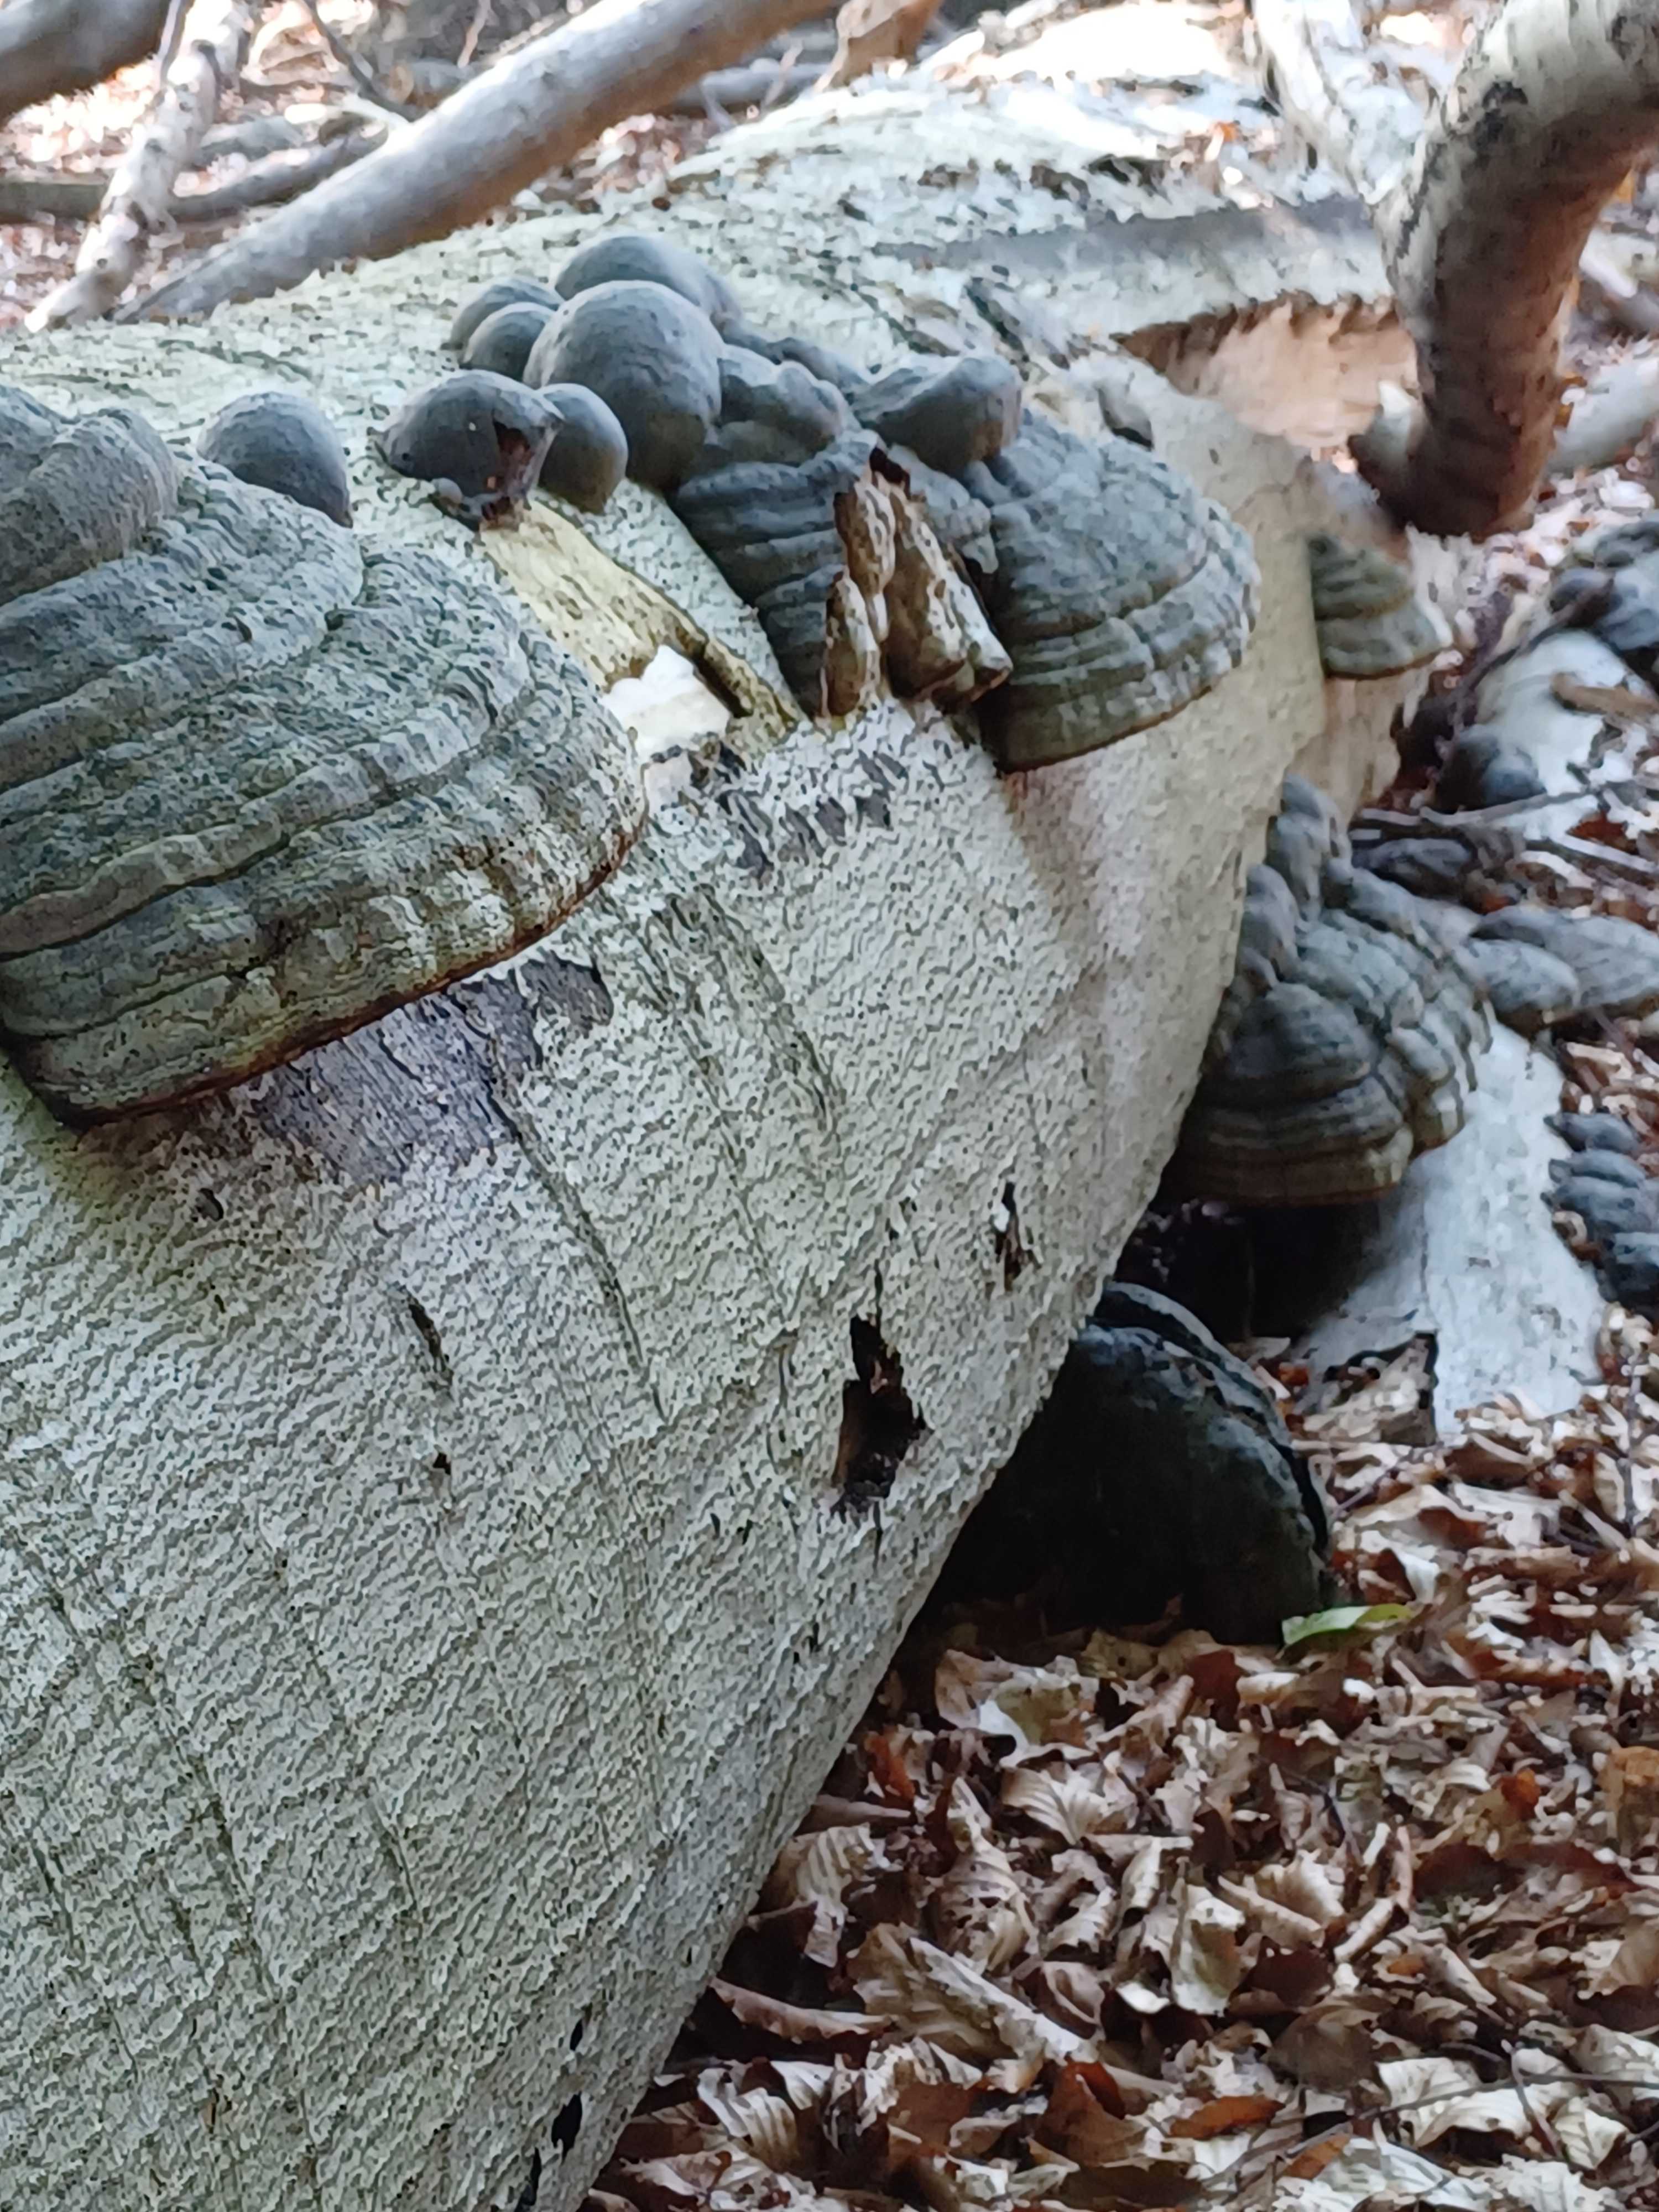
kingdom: Fungi
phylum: Basidiomycota
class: Agaricomycetes
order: Polyporales
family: Polyporaceae
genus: Fomes
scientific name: Fomes fomentarius
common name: tøndersvamp
